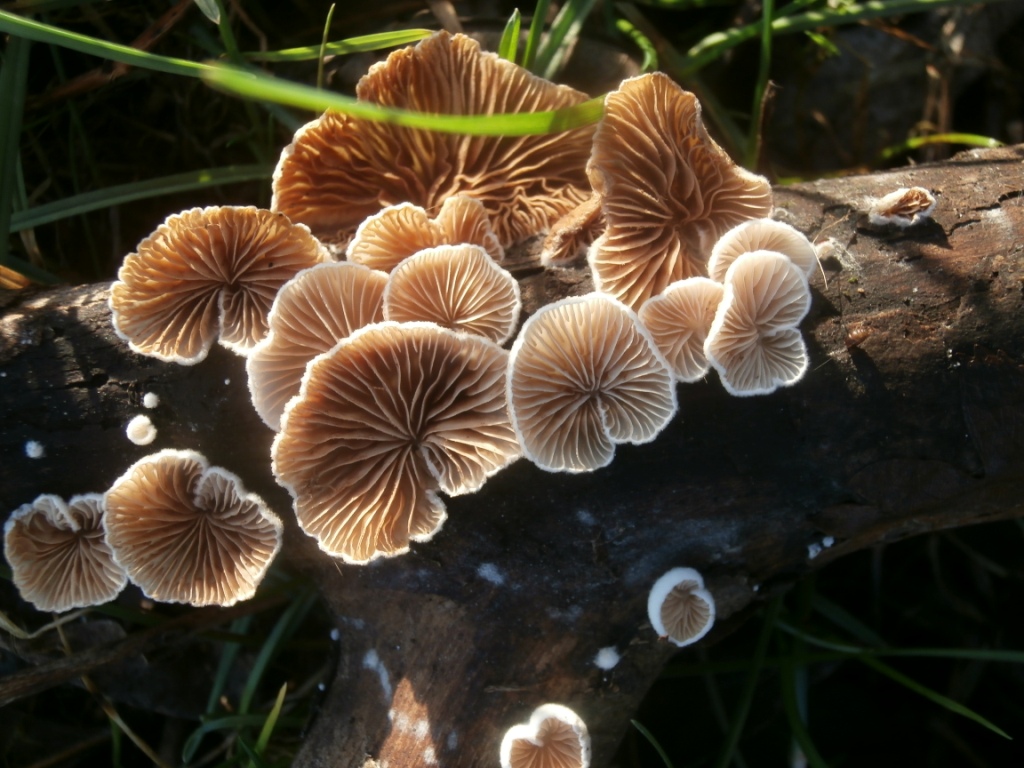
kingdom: Fungi
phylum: Basidiomycota
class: Agaricomycetes
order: Agaricales
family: Crepidotaceae
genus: Crepidotus
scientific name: Crepidotus cesatii
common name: almindelig muslingesvamp
